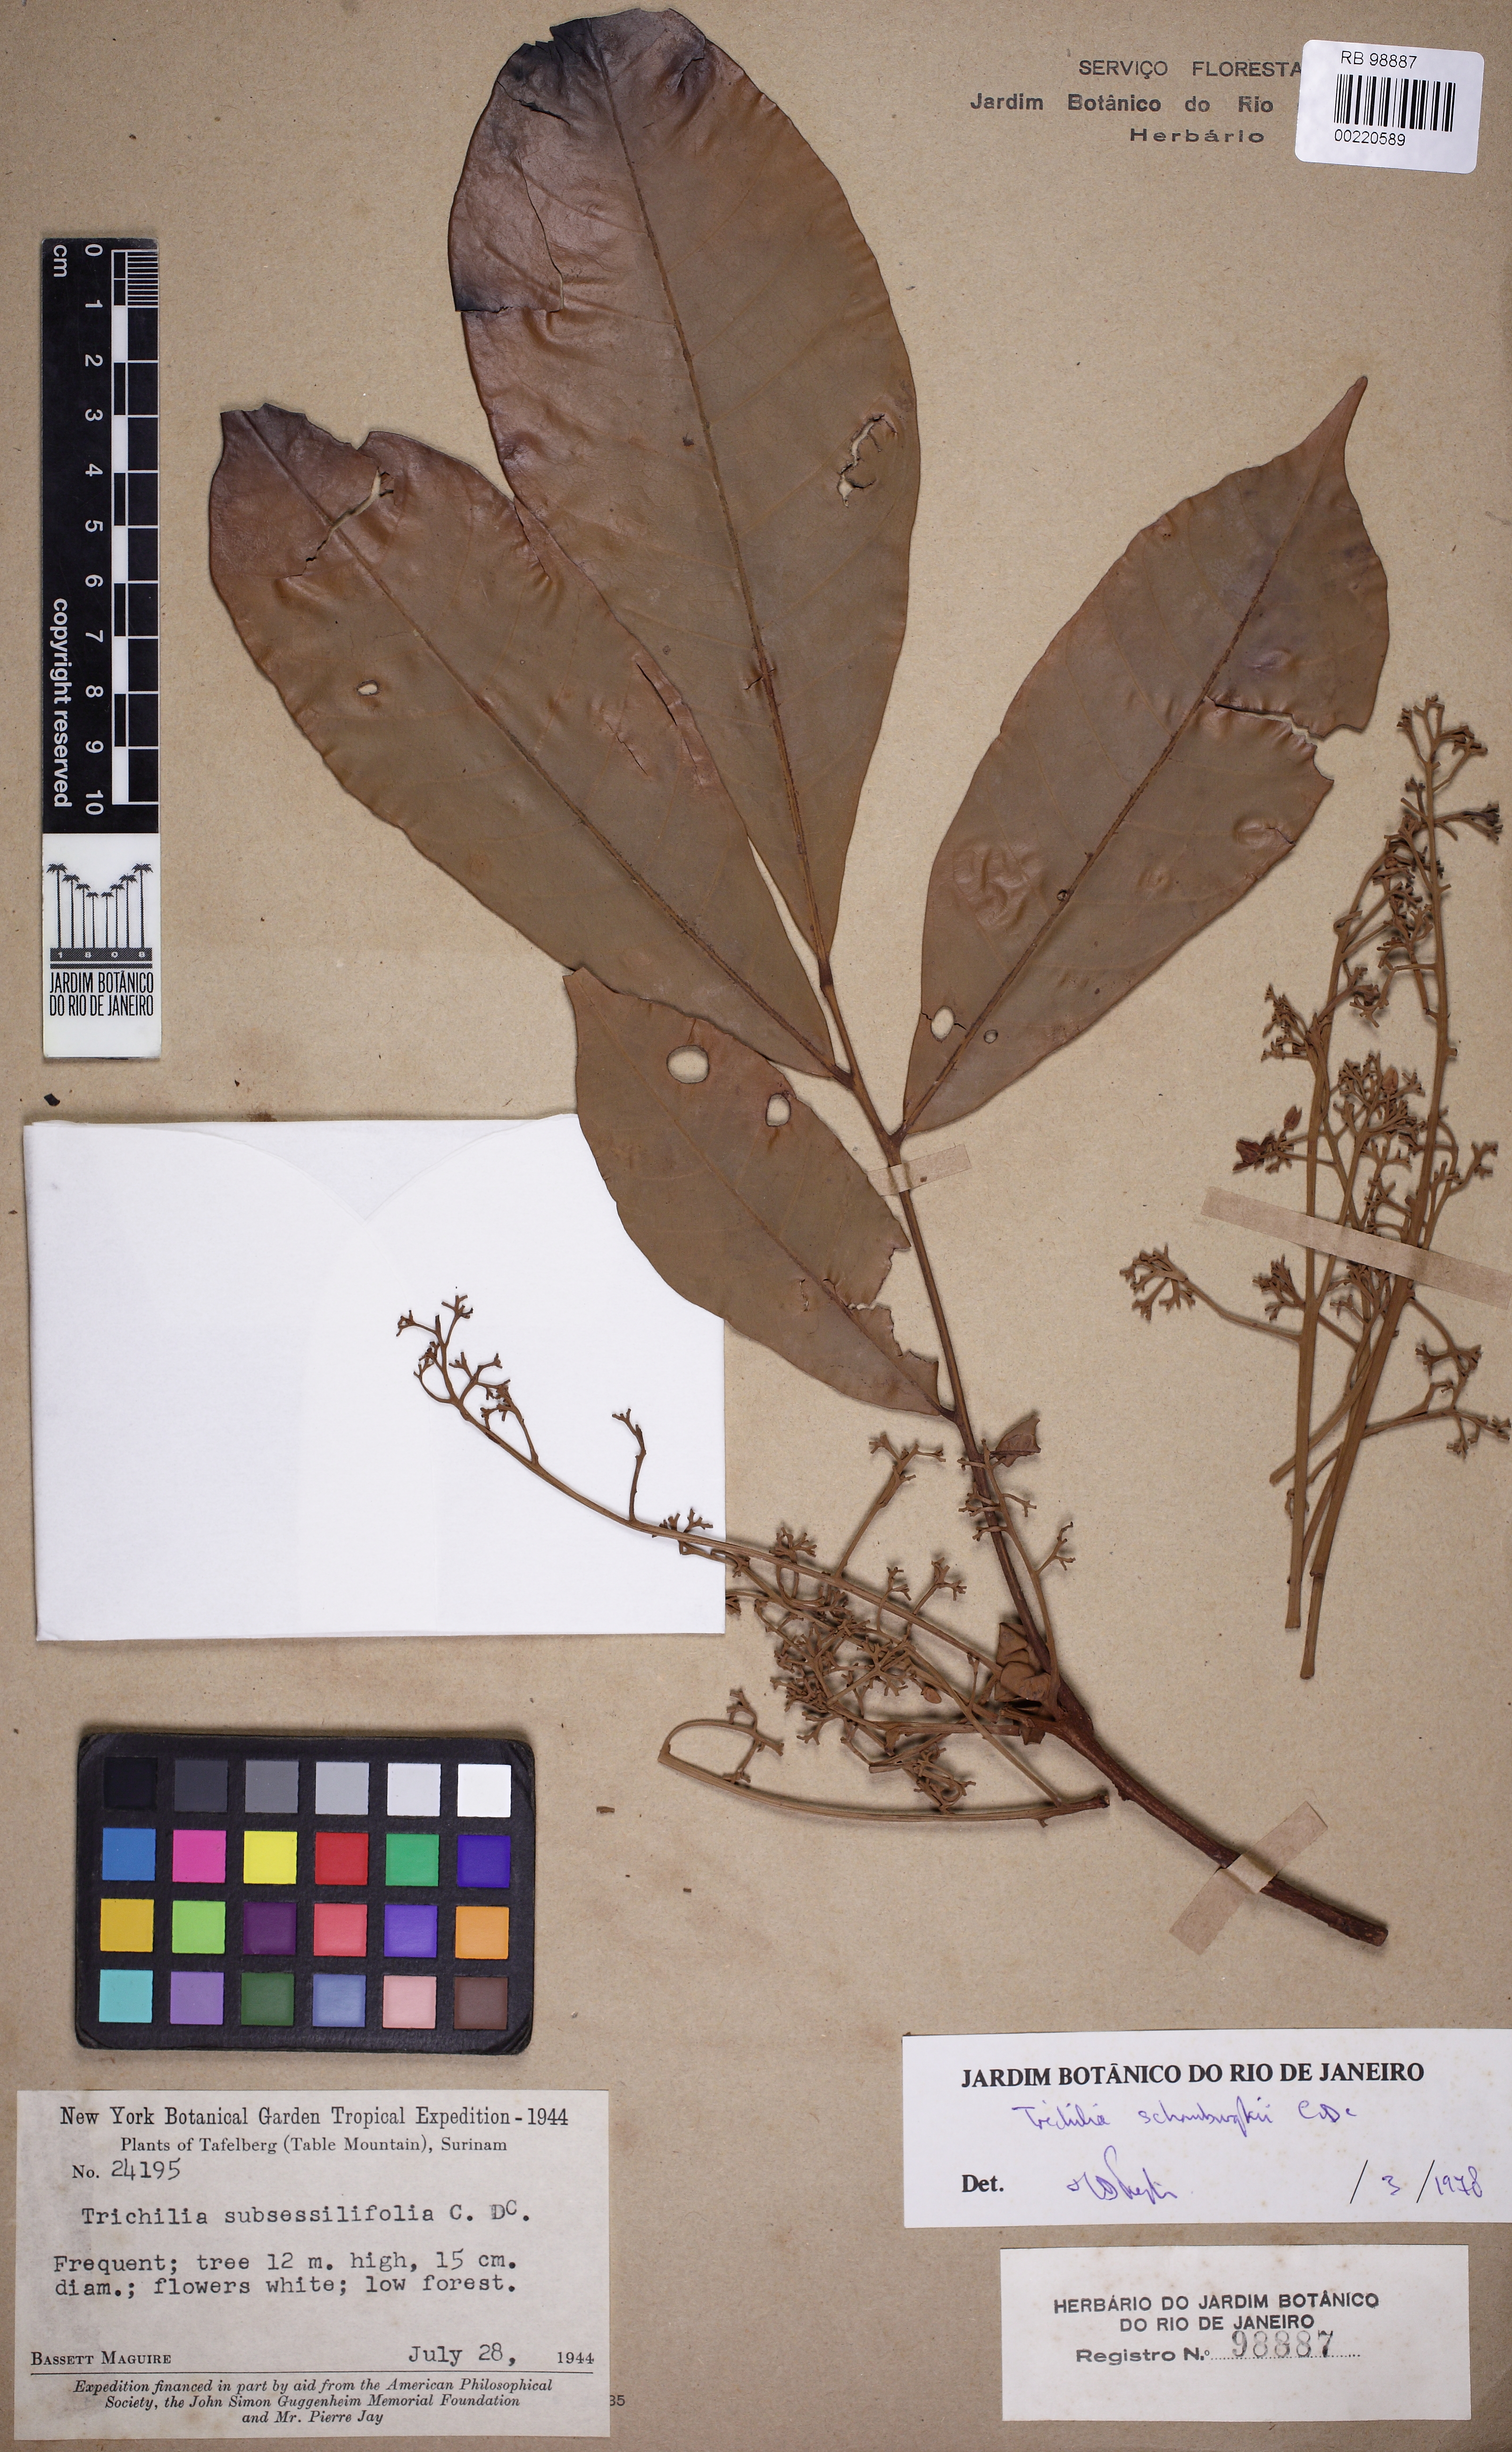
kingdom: Plantae
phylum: Tracheophyta
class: Magnoliopsida
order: Sapindales
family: Meliaceae
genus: Trichilia
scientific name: Trichilia schomburgkii
